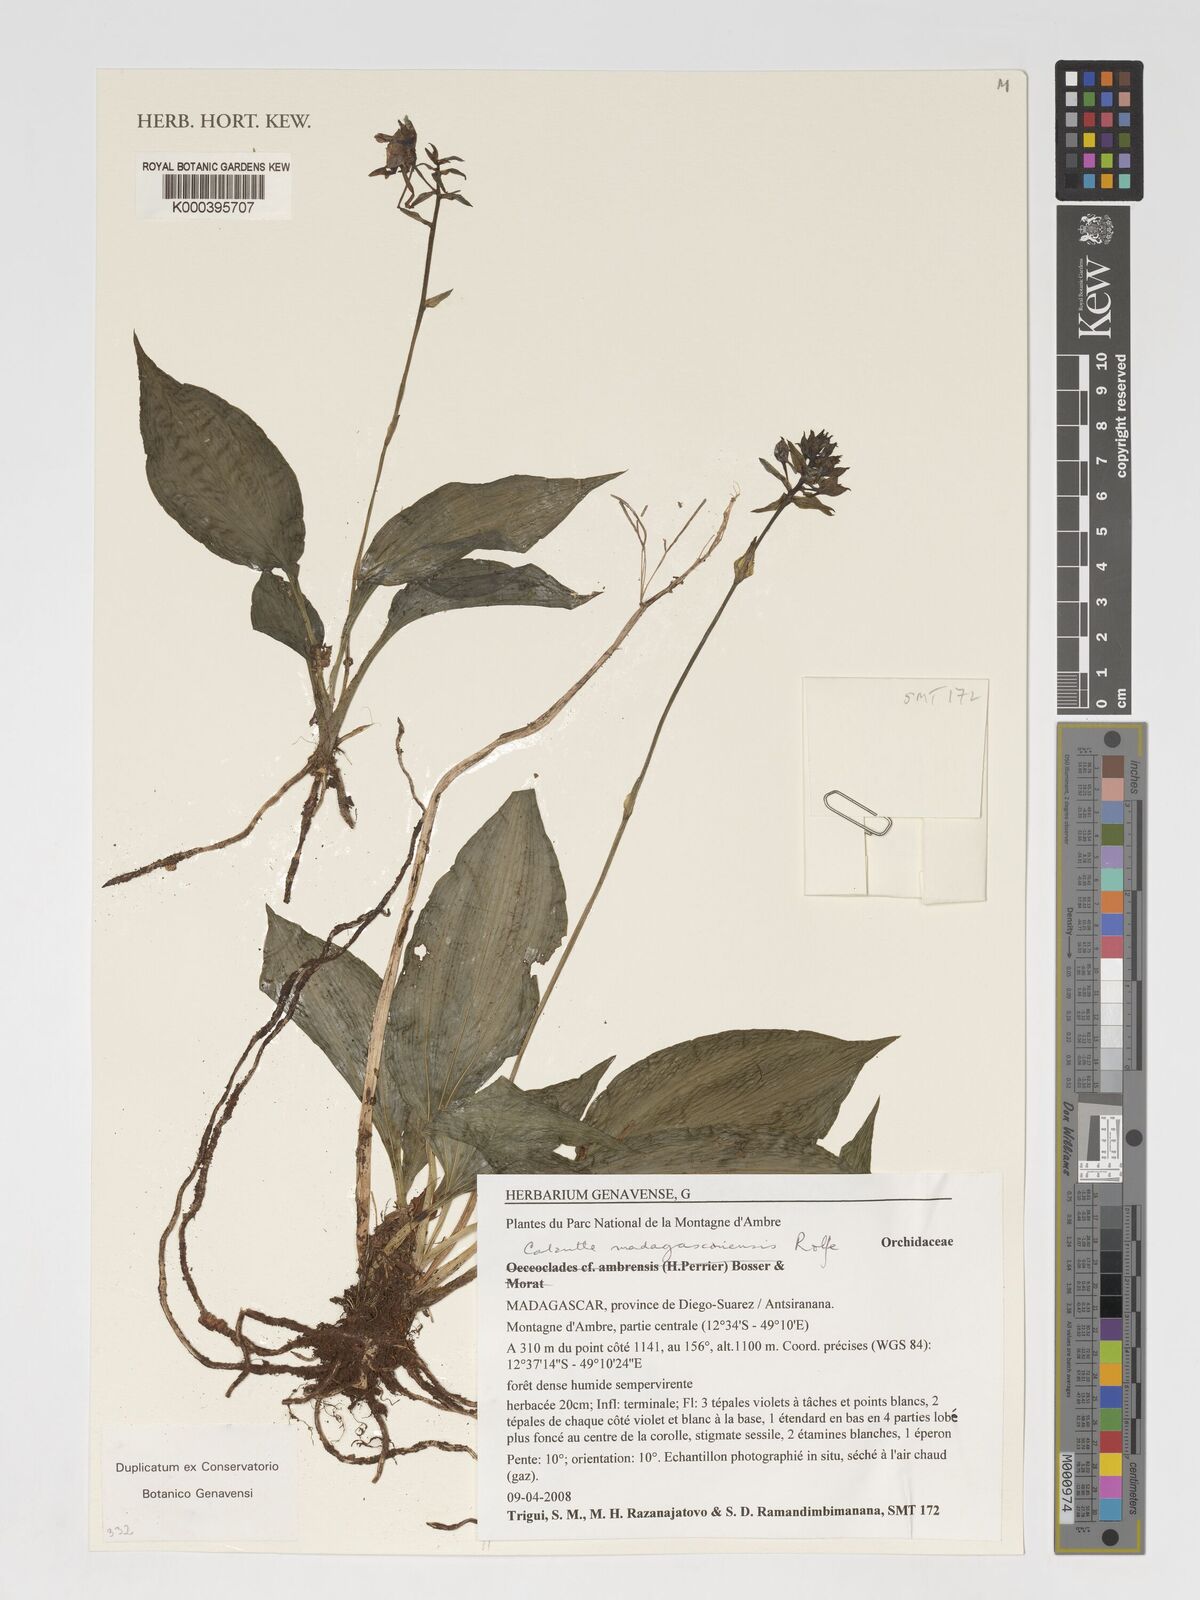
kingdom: Plantae
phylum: Tracheophyta
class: Liliopsida
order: Asparagales
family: Orchidaceae
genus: Calanthe
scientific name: Calanthe madagascariensis
